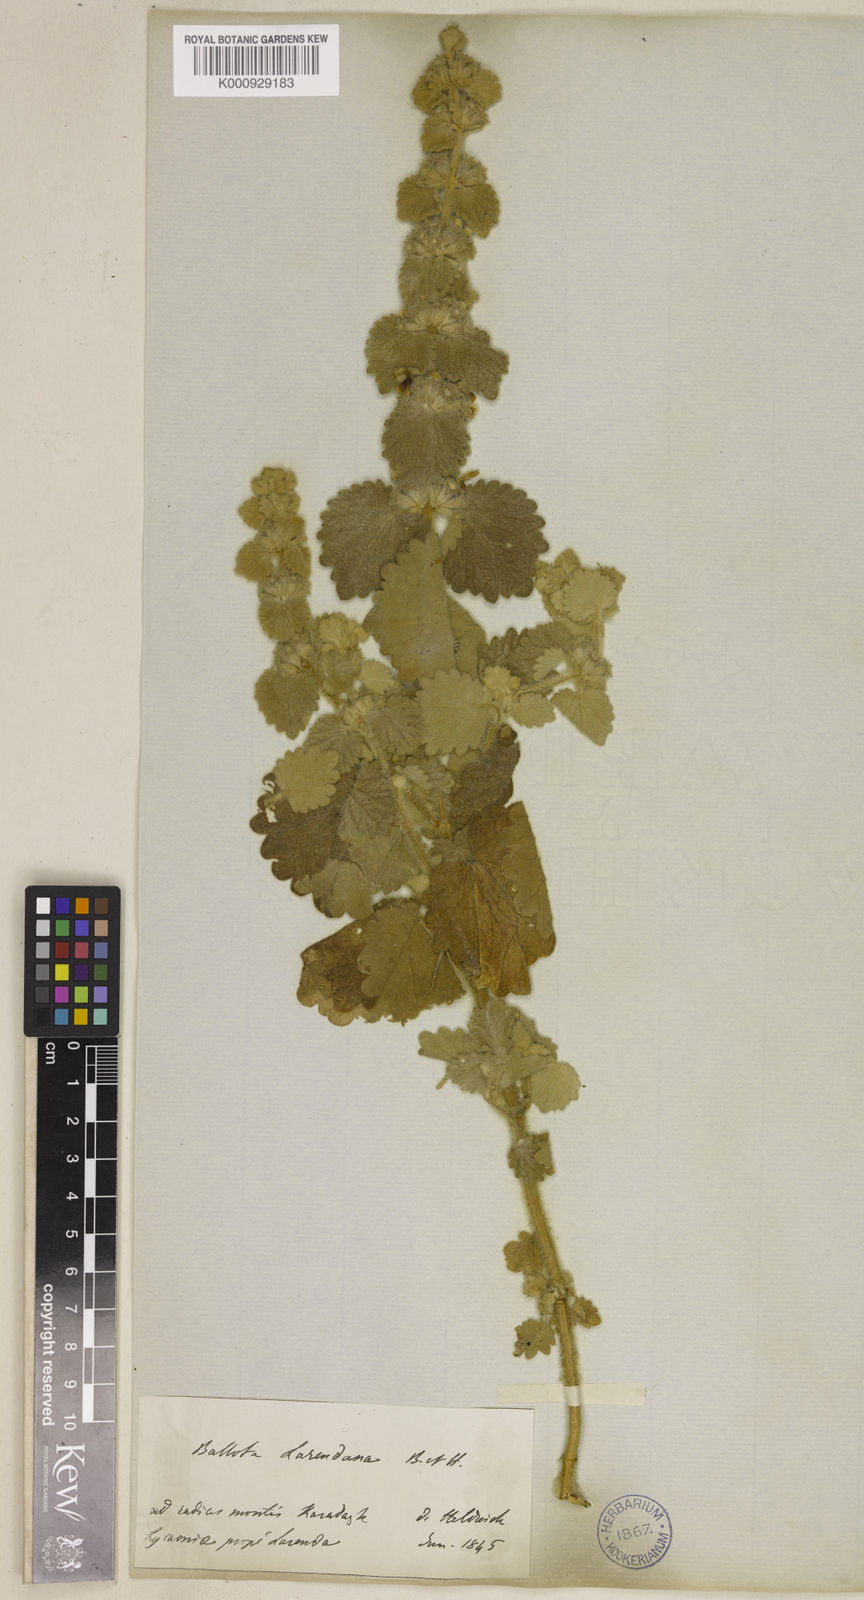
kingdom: Plantae
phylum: Tracheophyta
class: Magnoliopsida
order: Lamiales
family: Lamiaceae
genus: Ballota
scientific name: Ballota larendana
